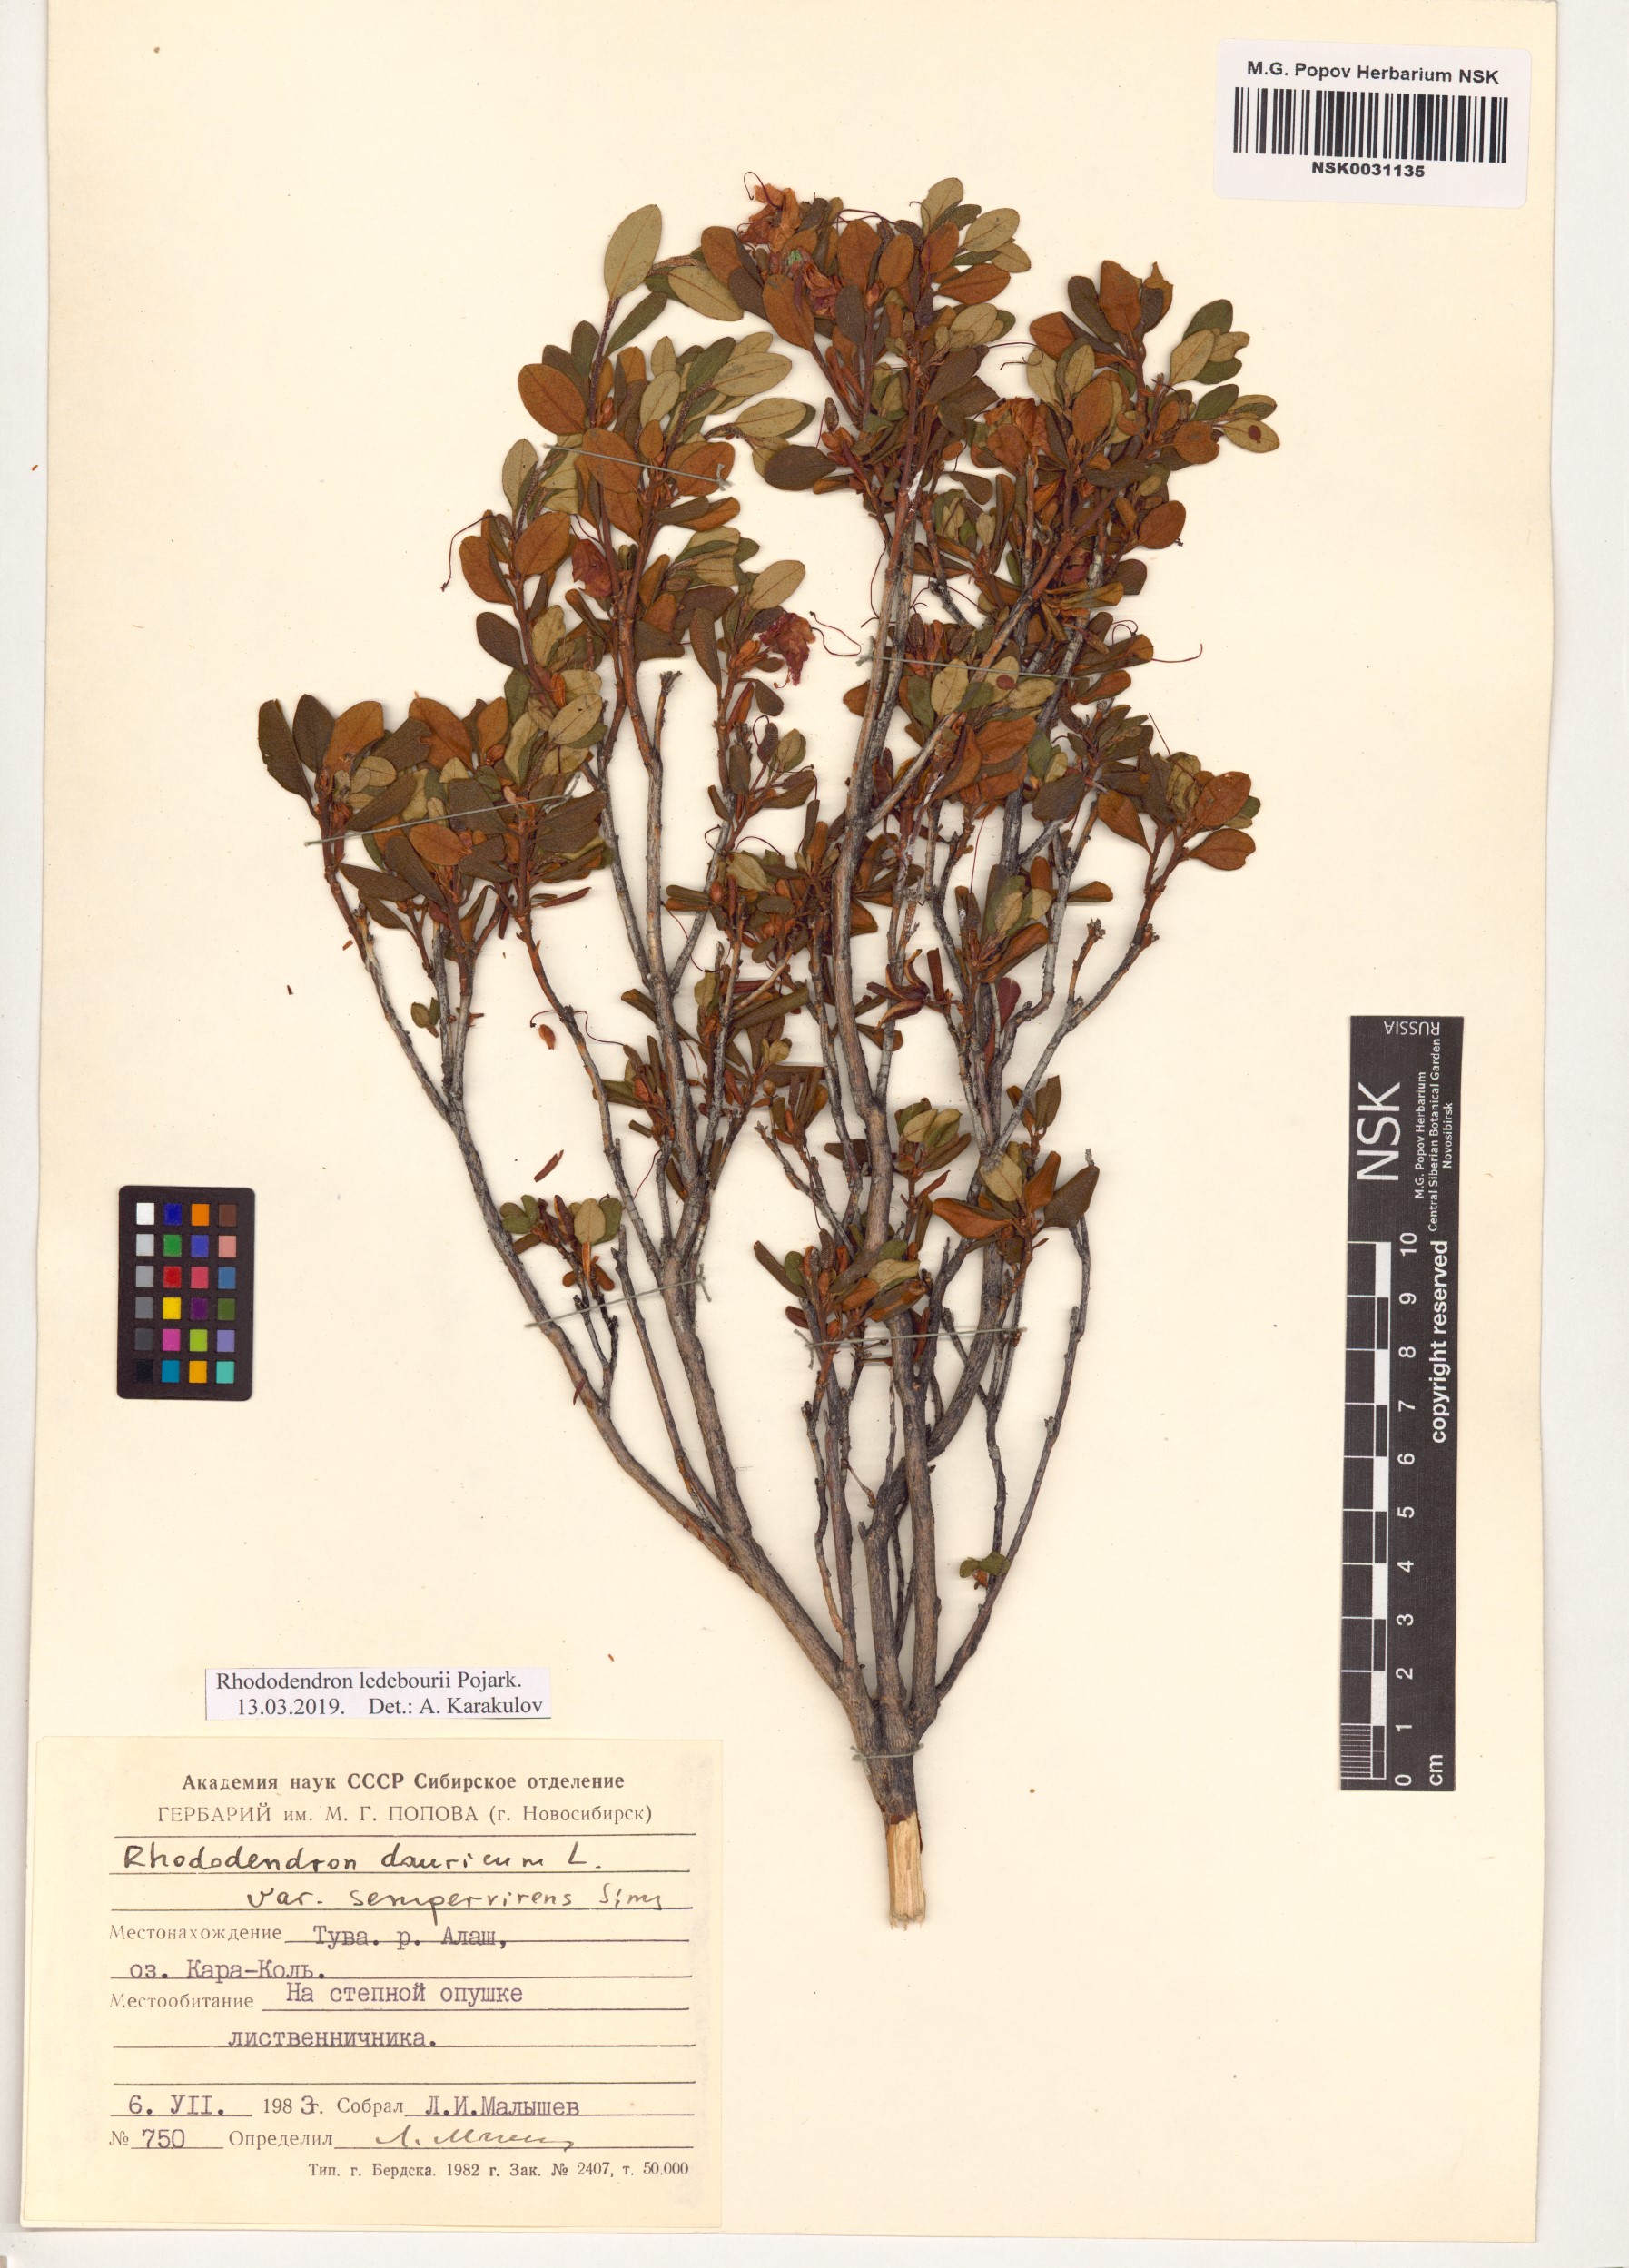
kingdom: Plantae
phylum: Tracheophyta
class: Magnoliopsida
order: Ericales
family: Ericaceae
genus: Rhododendron
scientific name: Rhododendron dauricum
